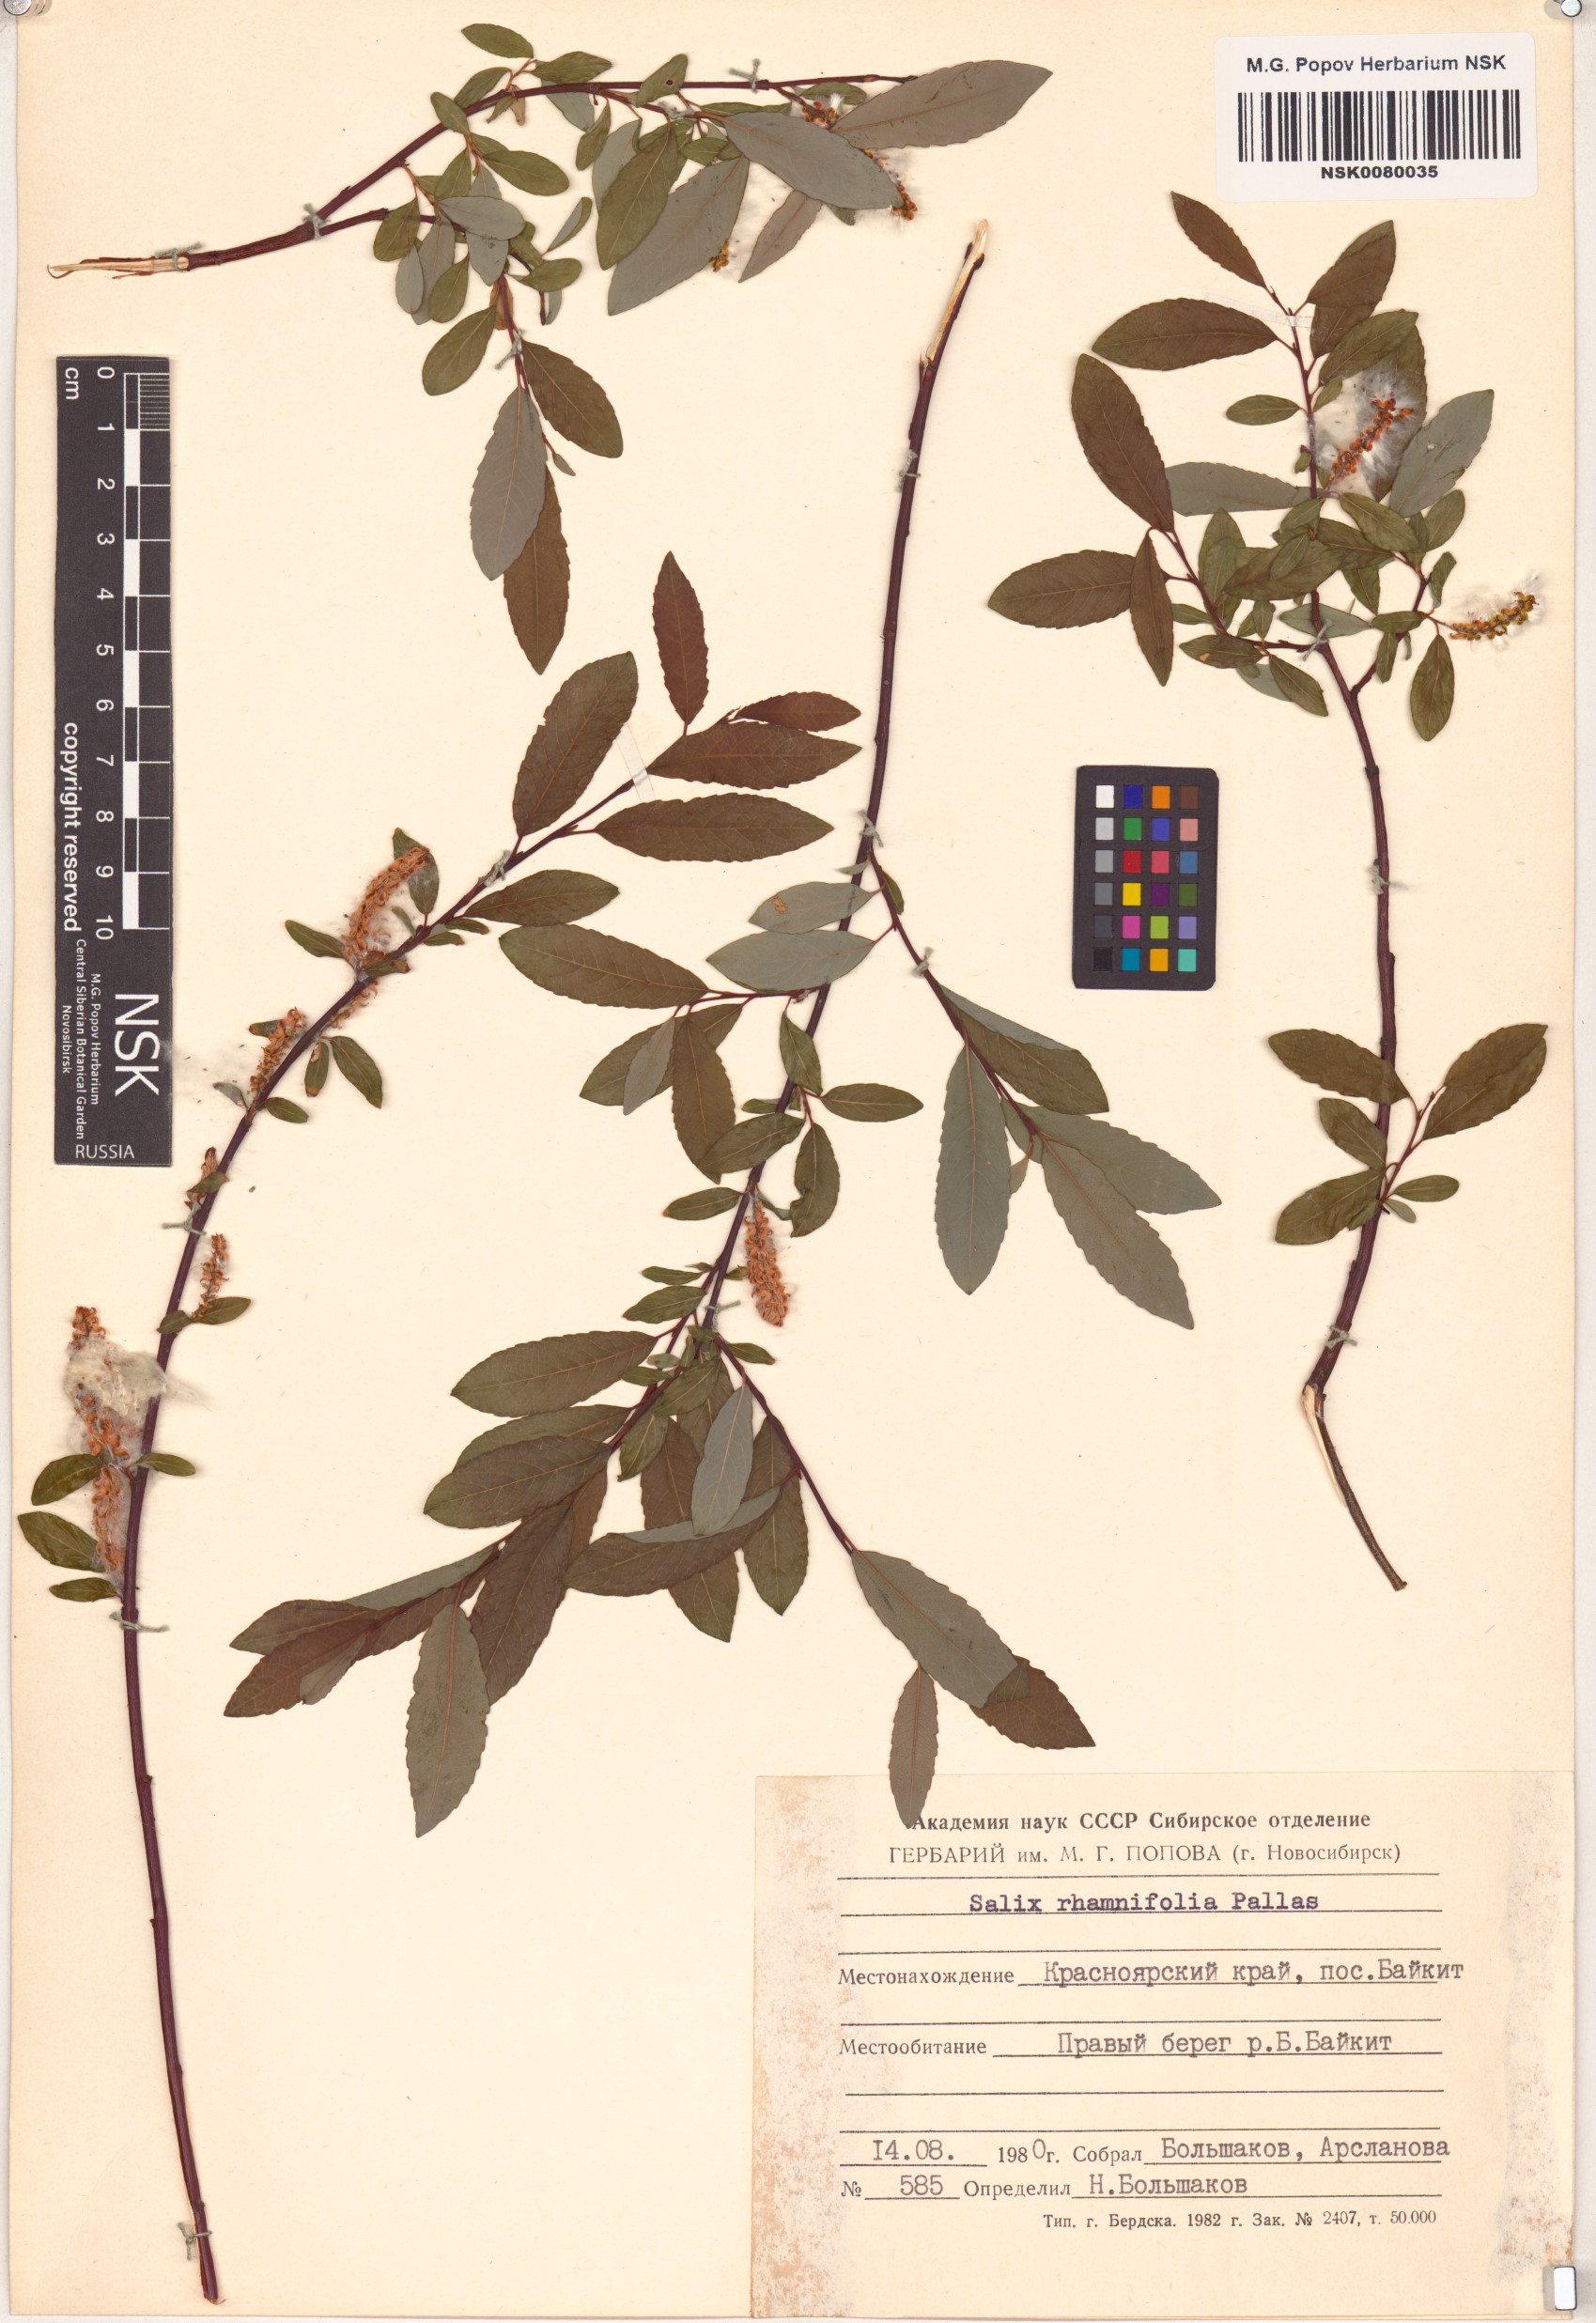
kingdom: Plantae
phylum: Tracheophyta
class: Magnoliopsida
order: Malpighiales
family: Salicaceae
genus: Salix
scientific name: Salix rhamnifolia
